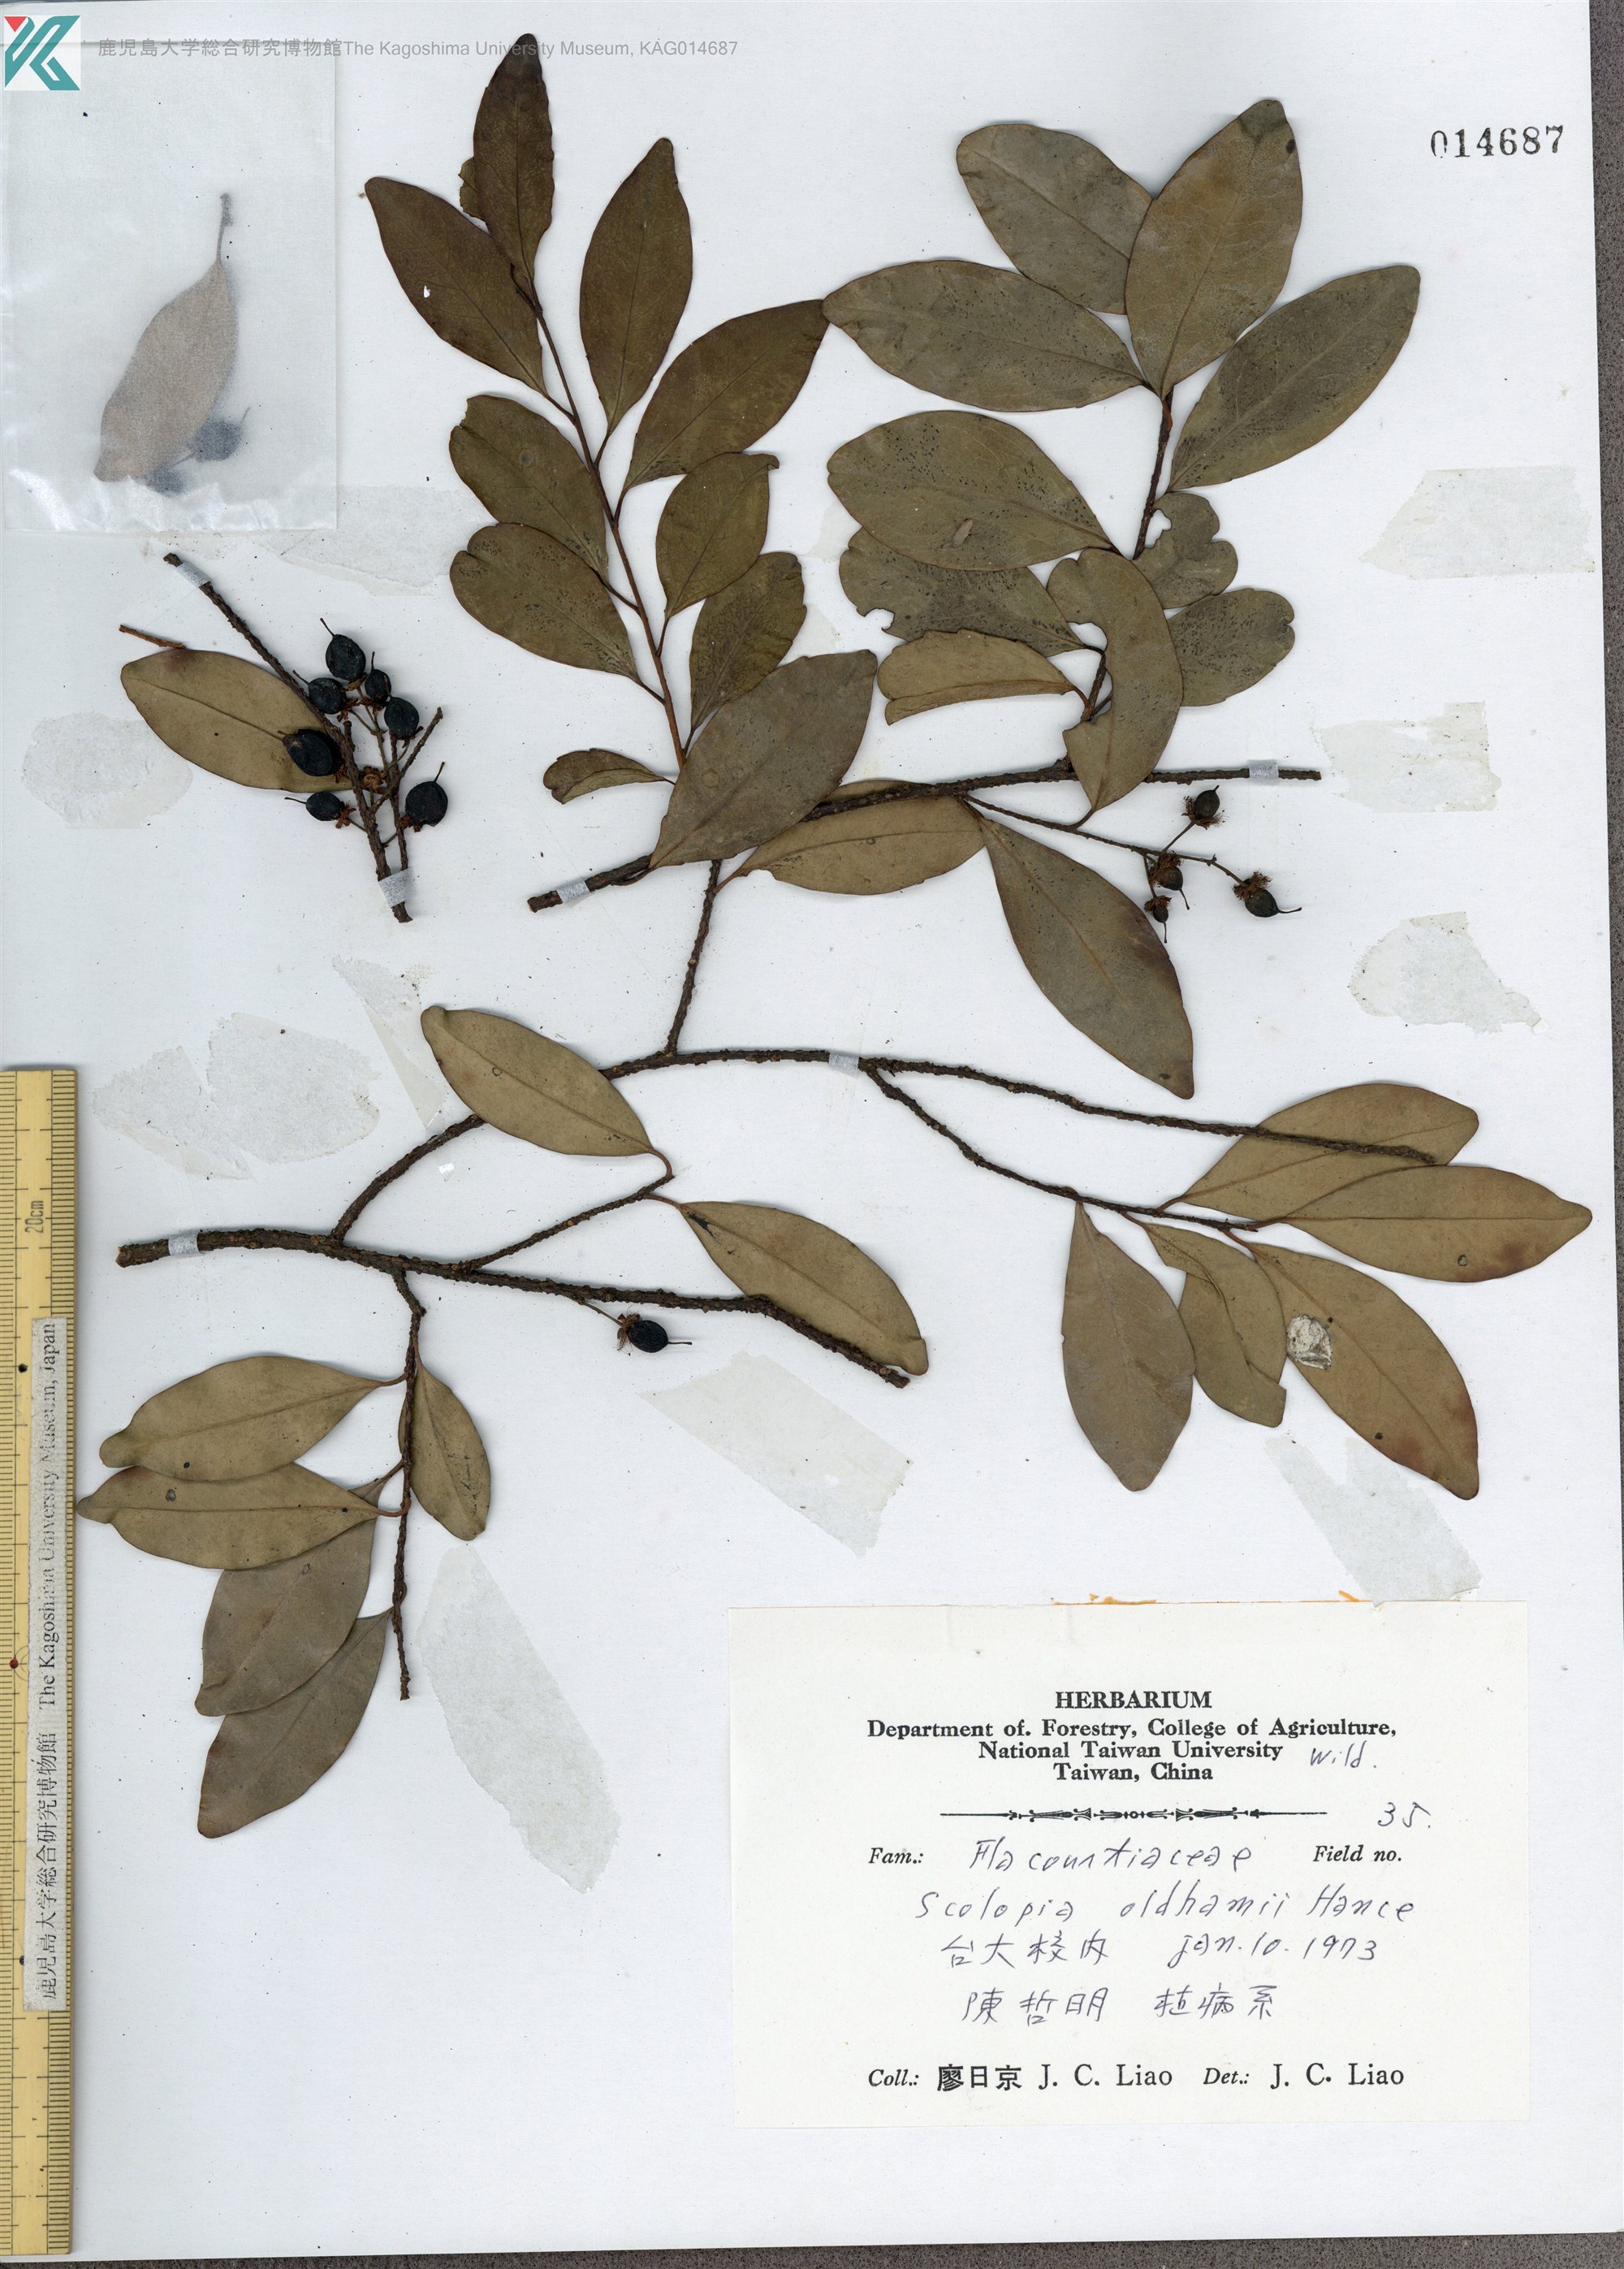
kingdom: Plantae
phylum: Tracheophyta
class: Magnoliopsida
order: Malpighiales
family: Salicaceae
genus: Scolopia
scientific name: Scolopia oldhamii
